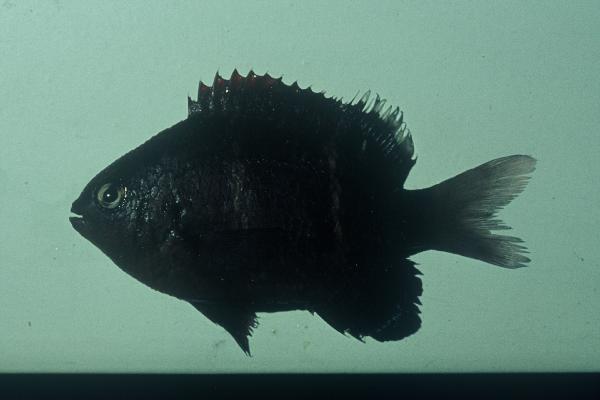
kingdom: Animalia
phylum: Chordata
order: Perciformes
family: Pomacentridae
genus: Abudefduf
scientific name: Abudefduf notatus
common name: Yellow-tail sergeant
